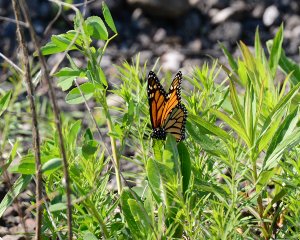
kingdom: Animalia
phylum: Arthropoda
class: Insecta
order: Lepidoptera
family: Nymphalidae
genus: Danaus
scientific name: Danaus plexippus
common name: Monarch
